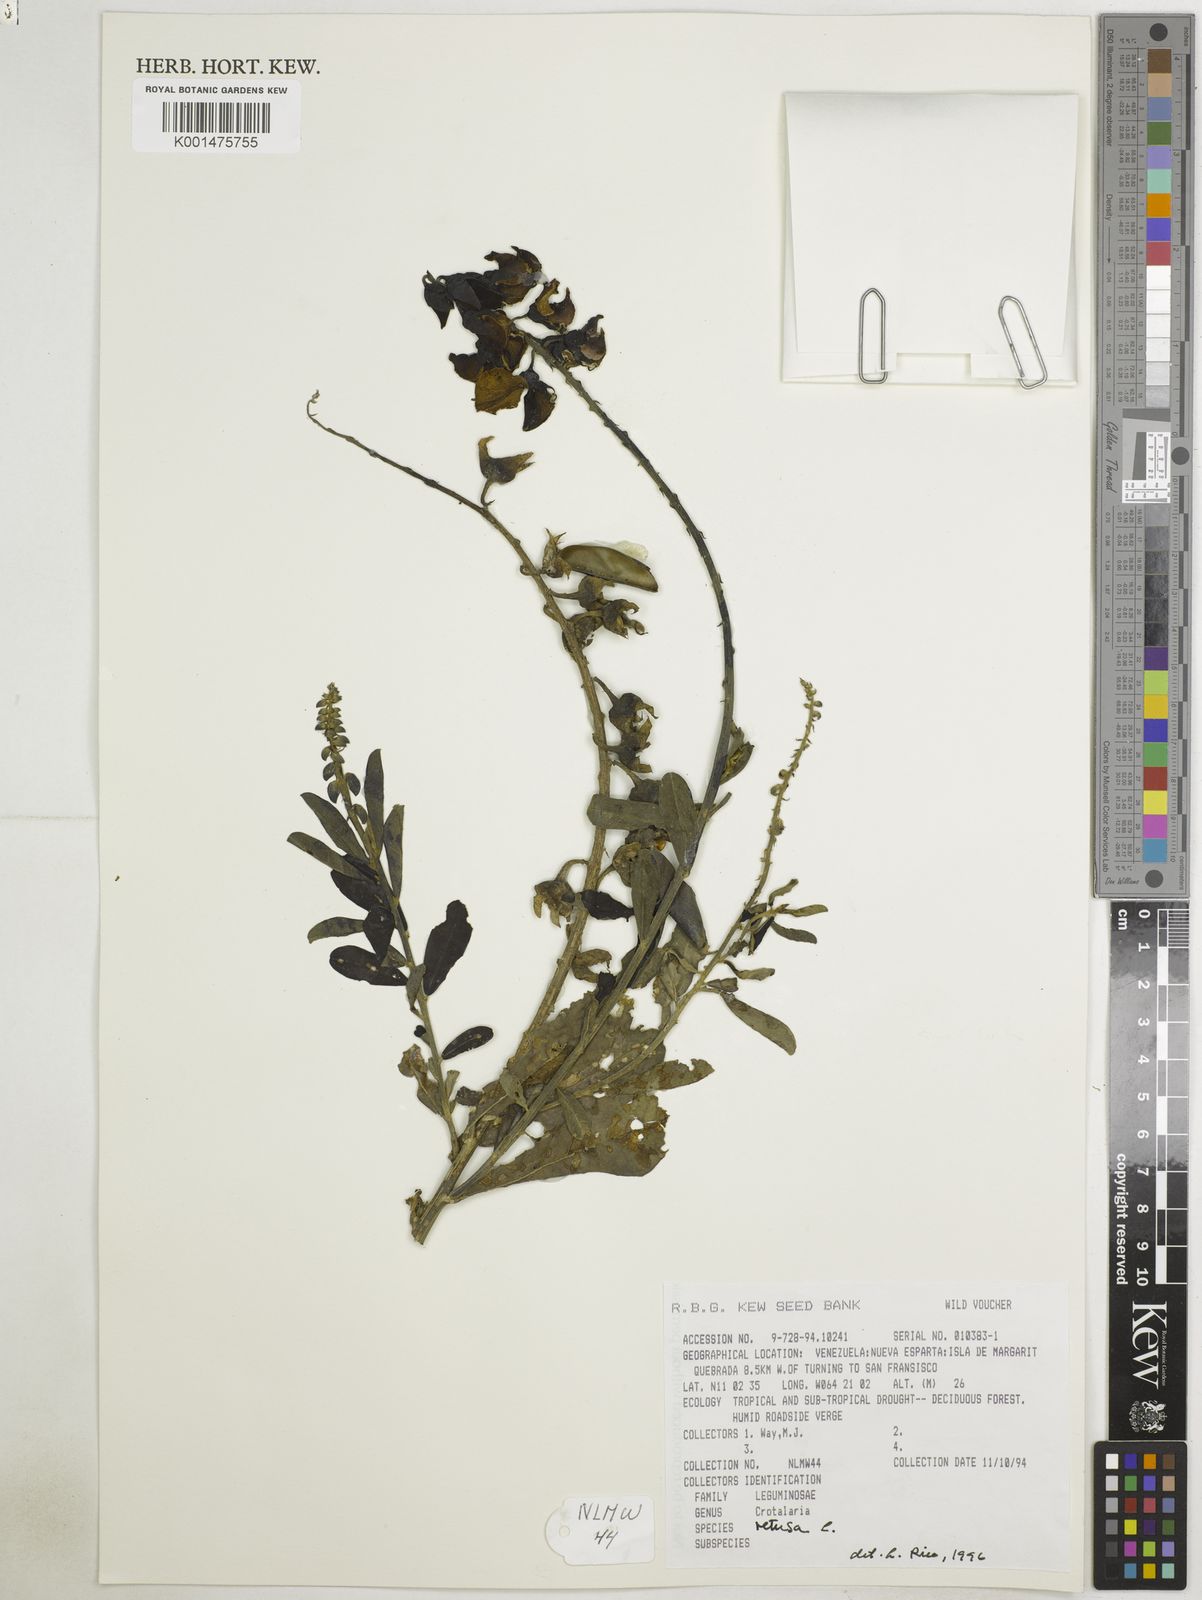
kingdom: Plantae
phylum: Tracheophyta
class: Magnoliopsida
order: Fabales
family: Fabaceae
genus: Crotalaria
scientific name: Crotalaria retusa
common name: Rattleweed
